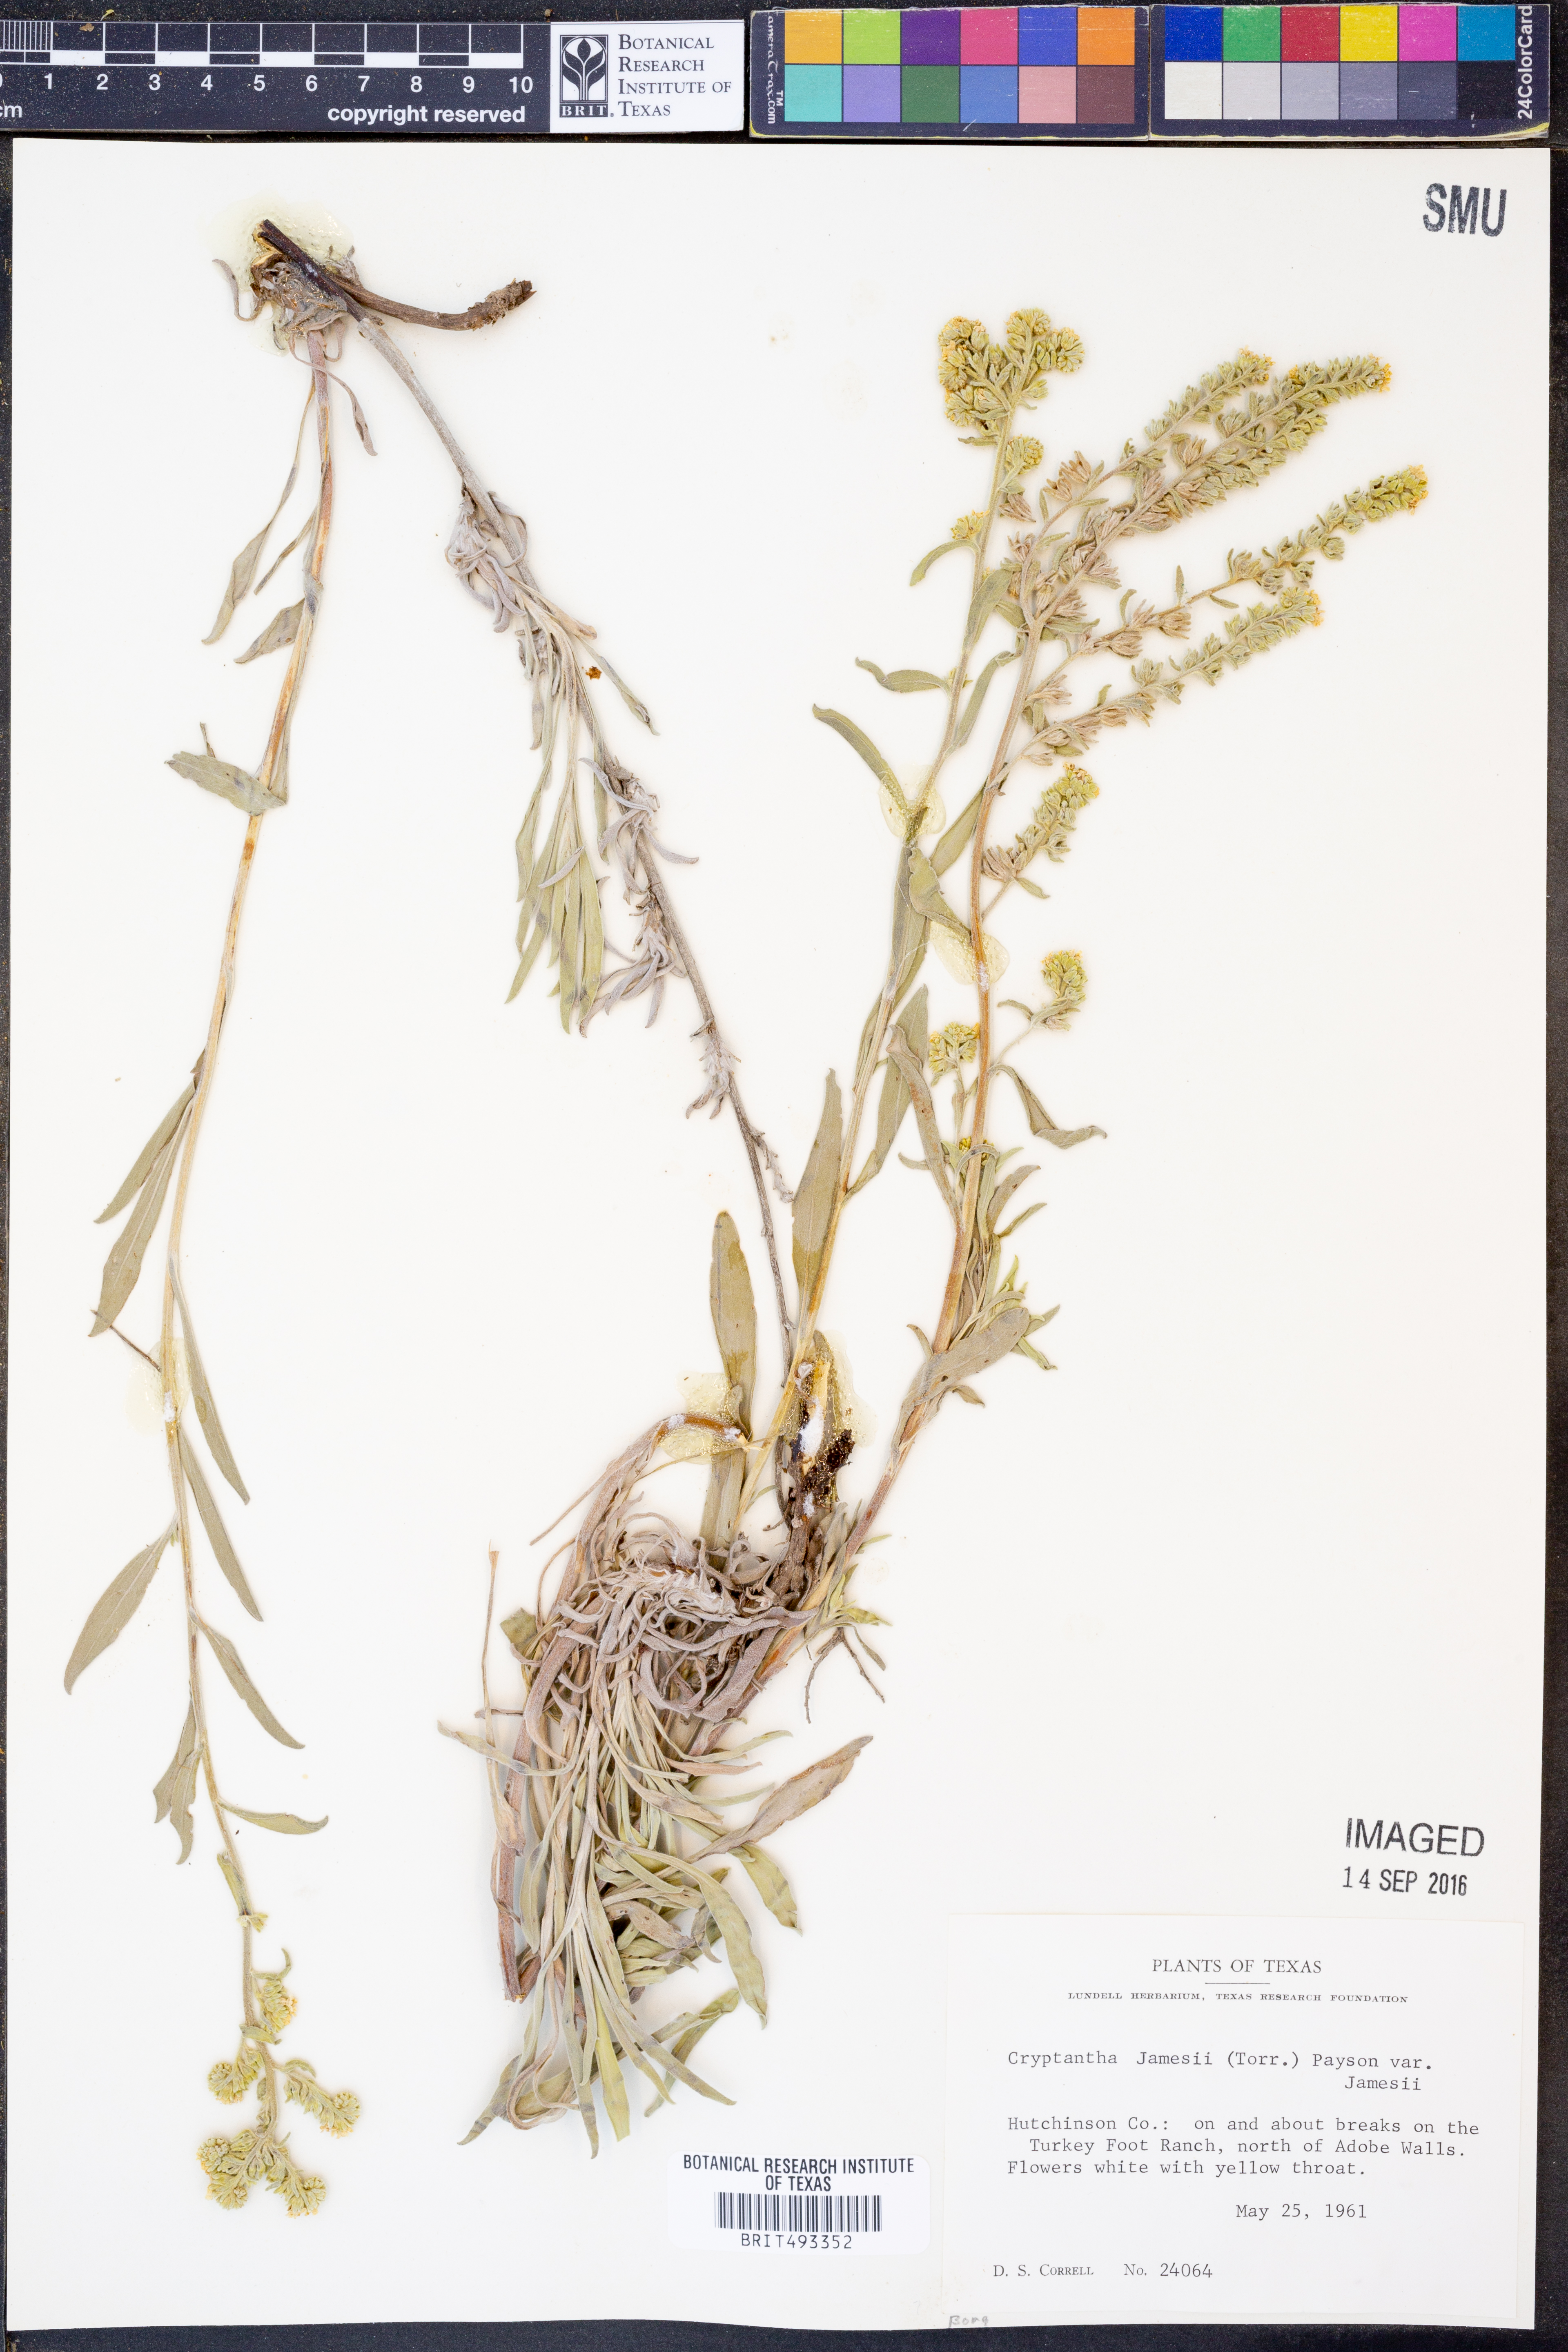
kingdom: Plantae
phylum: Tracheophyta
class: Magnoliopsida
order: Boraginales
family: Boraginaceae
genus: Oreocarya
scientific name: Oreocarya suffruticosa
